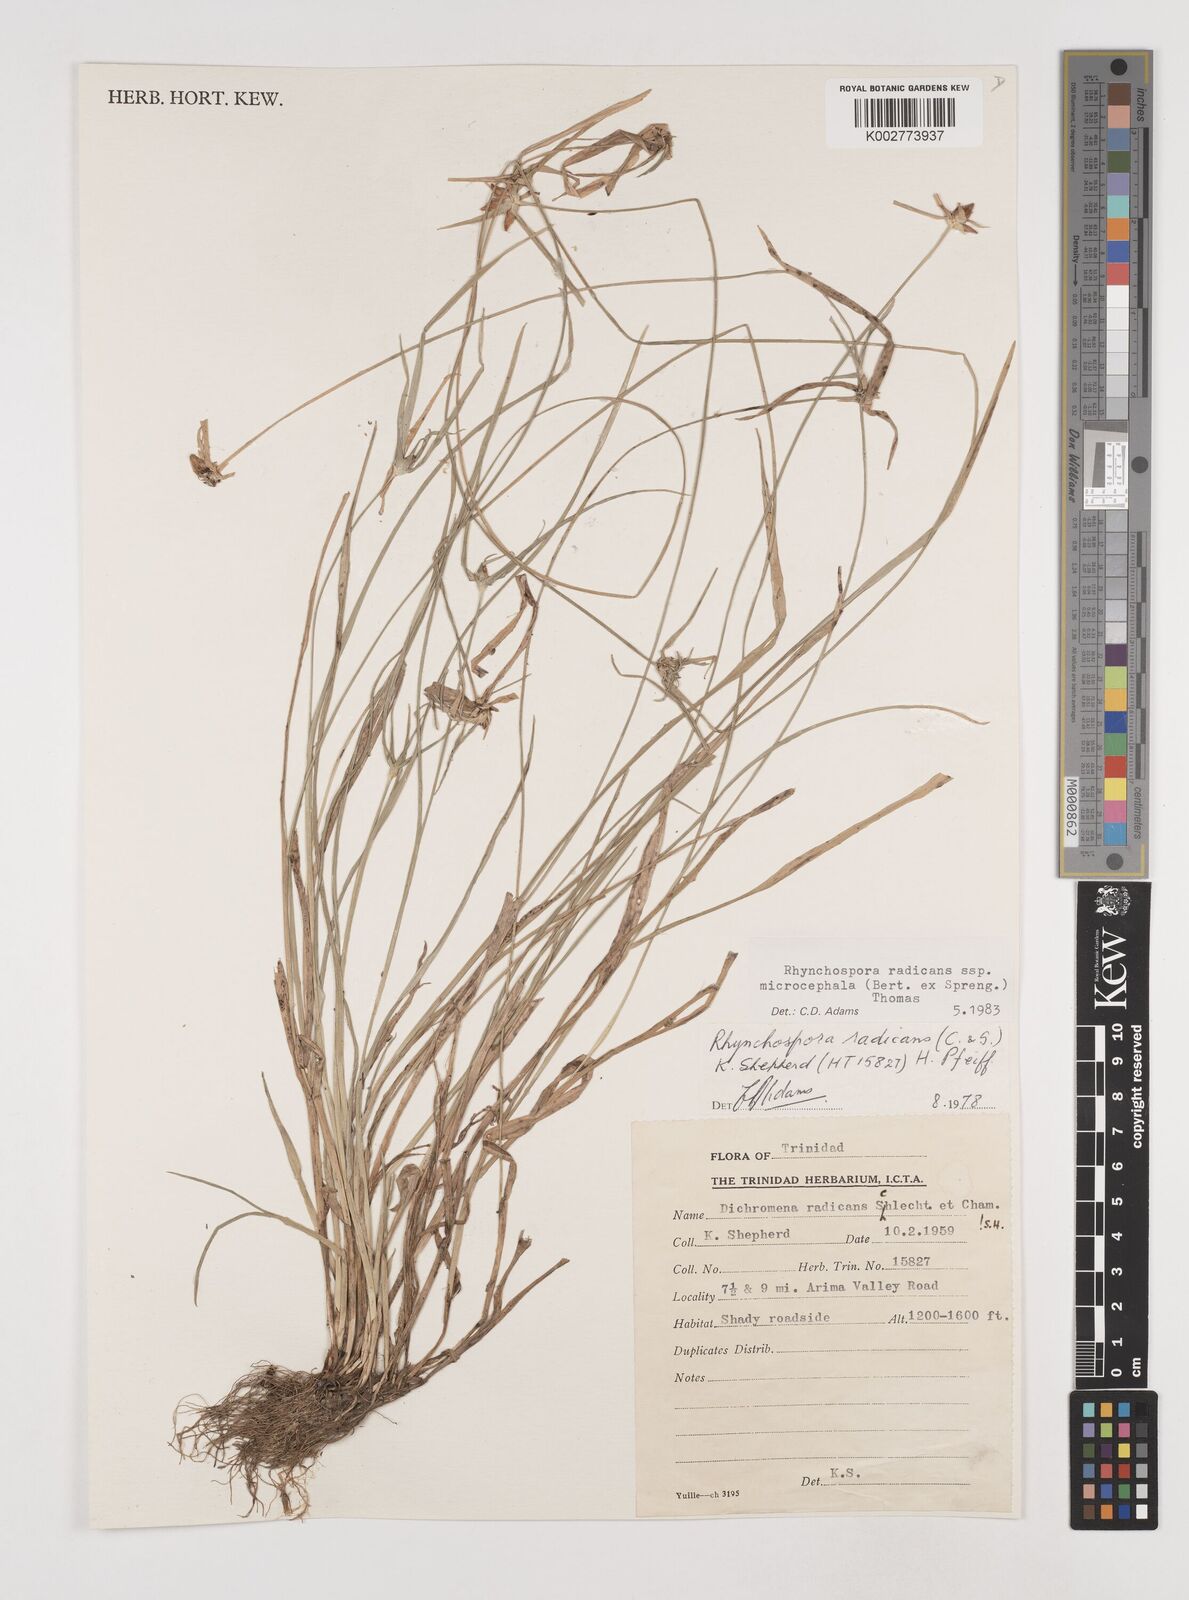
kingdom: Plantae
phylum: Tracheophyta
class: Liliopsida
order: Poales
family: Cyperaceae
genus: Rhynchospora
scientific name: Rhynchospora radicans
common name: Tropical whitetop
